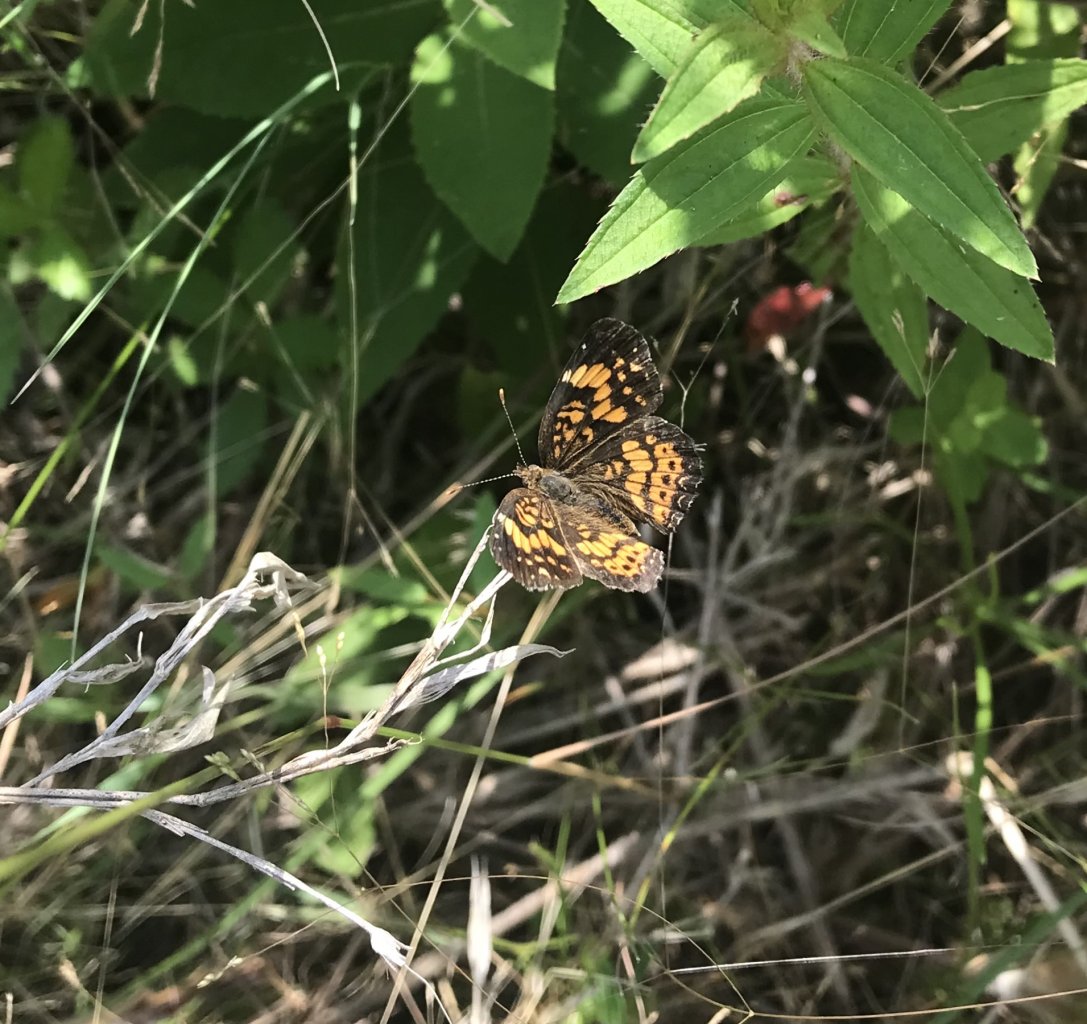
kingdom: Animalia
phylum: Arthropoda
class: Insecta
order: Lepidoptera
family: Nymphalidae
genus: Chlosyne
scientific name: Chlosyne gorgone
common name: Gorgone Checkerspot
